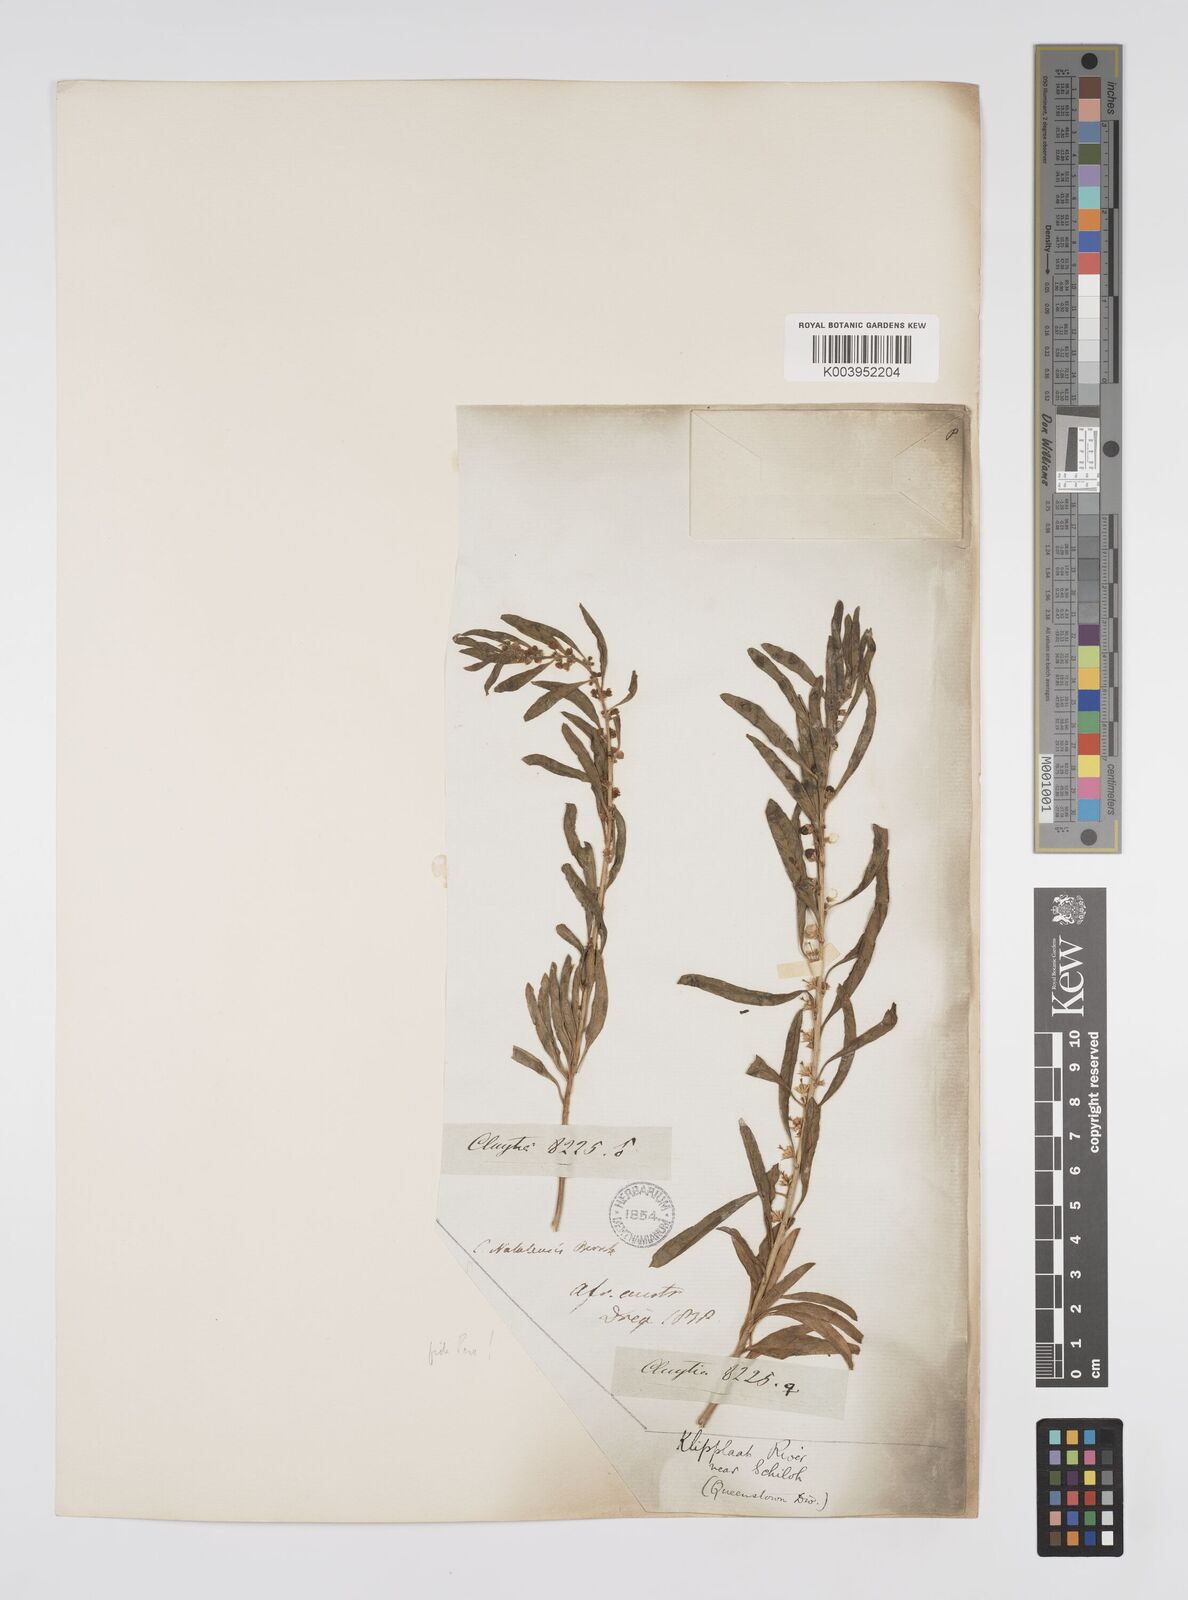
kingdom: Plantae
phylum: Tracheophyta
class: Magnoliopsida
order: Malpighiales
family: Peraceae
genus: Clutia
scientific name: Clutia natalensis
